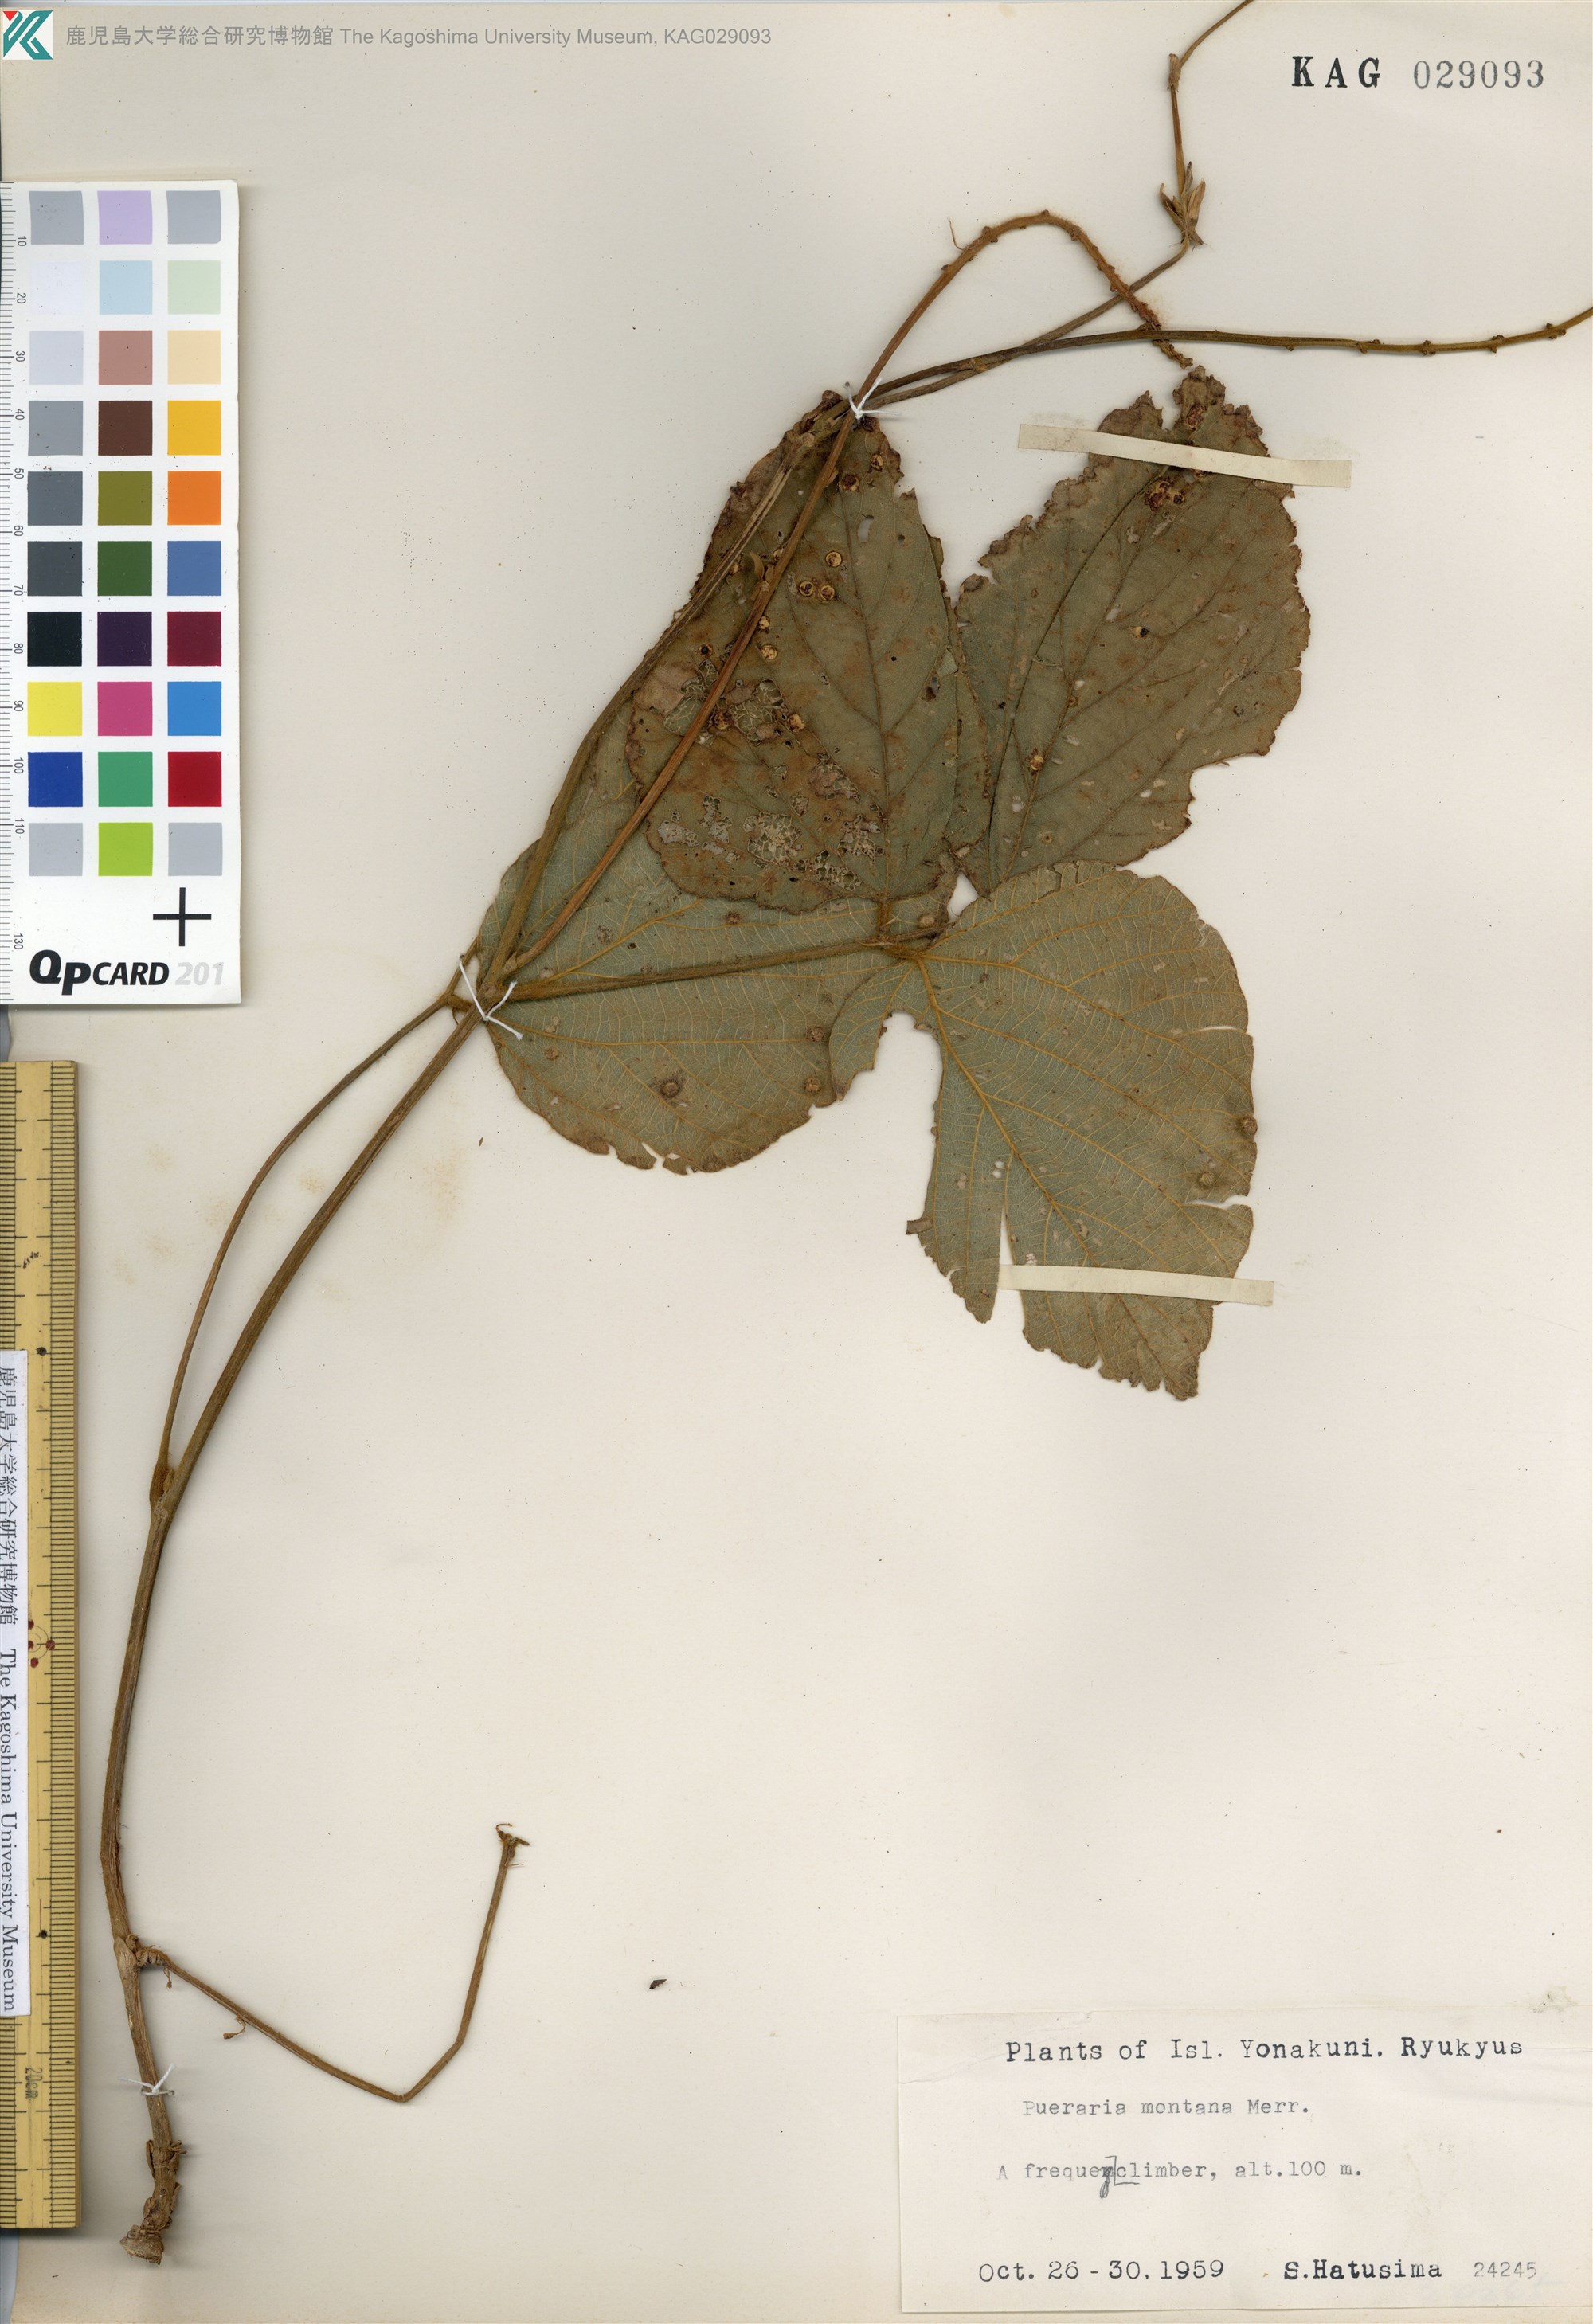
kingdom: Plantae
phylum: Tracheophyta
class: Magnoliopsida
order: Fabales
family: Fabaceae
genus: Pueraria
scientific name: Pueraria montana
